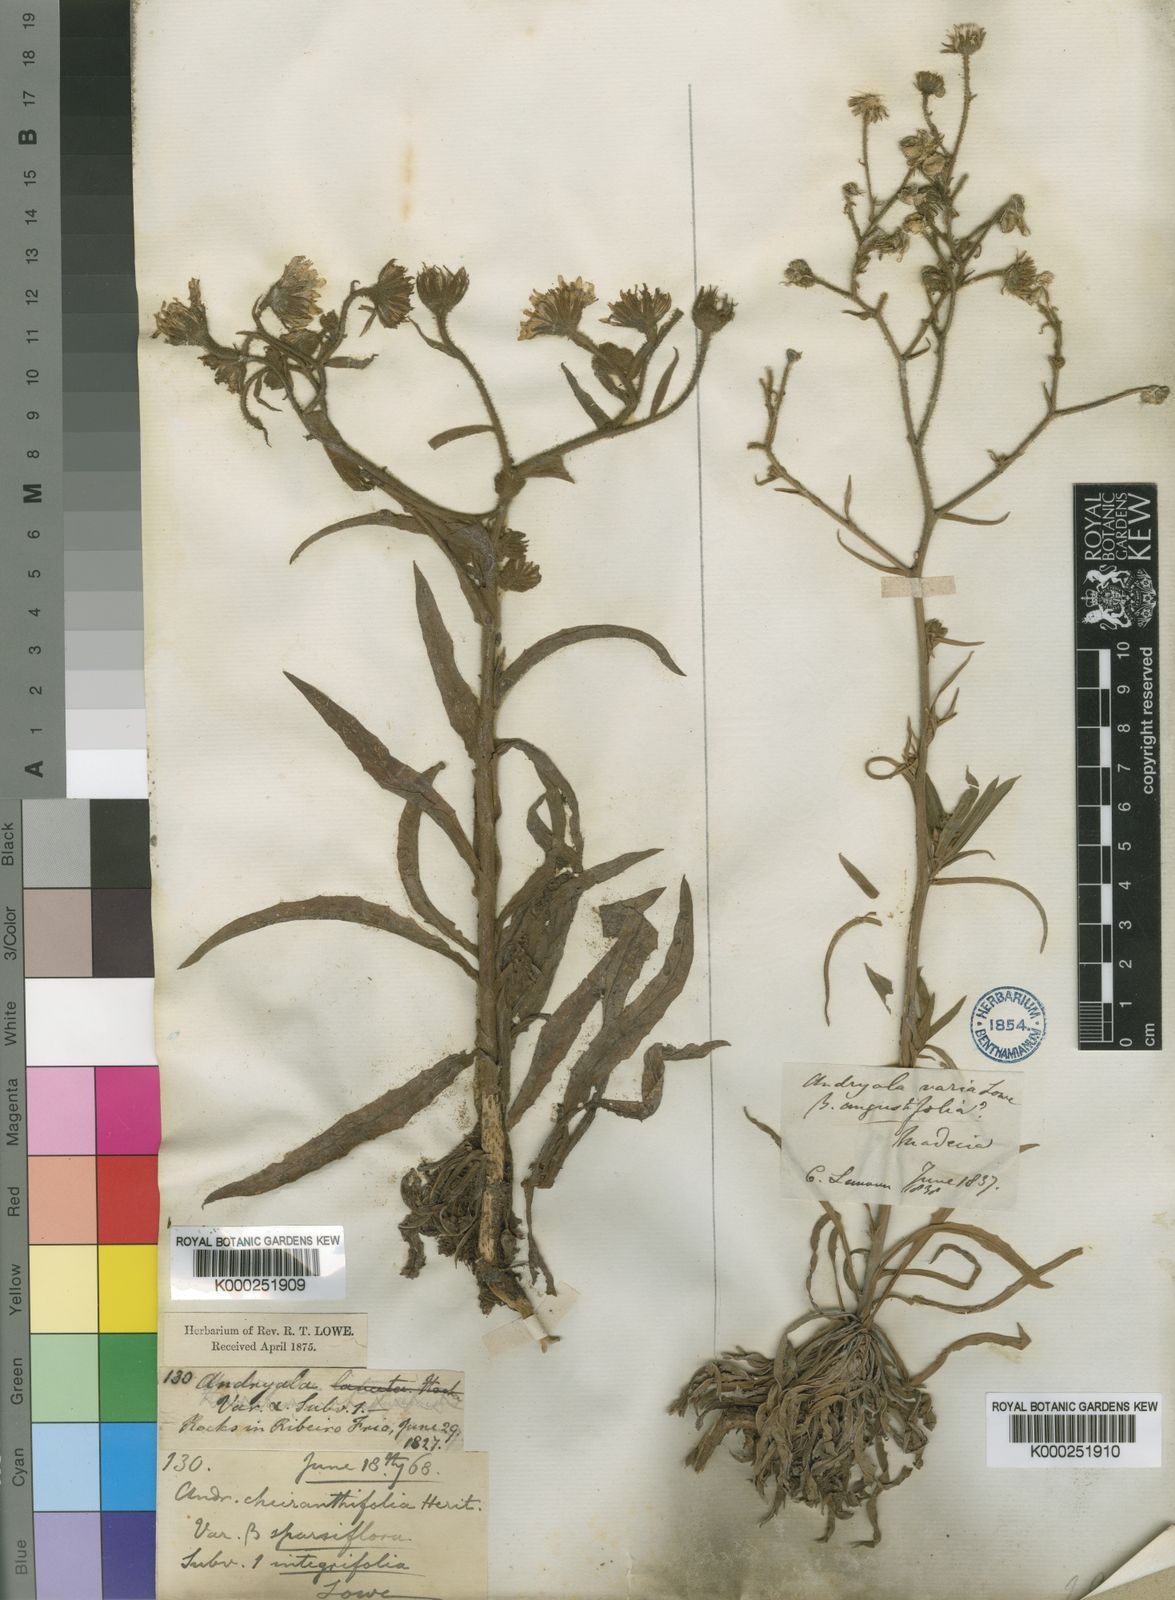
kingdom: Plantae
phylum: Tracheophyta
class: Magnoliopsida
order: Asterales
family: Asteraceae
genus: Andryala
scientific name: Andryala
